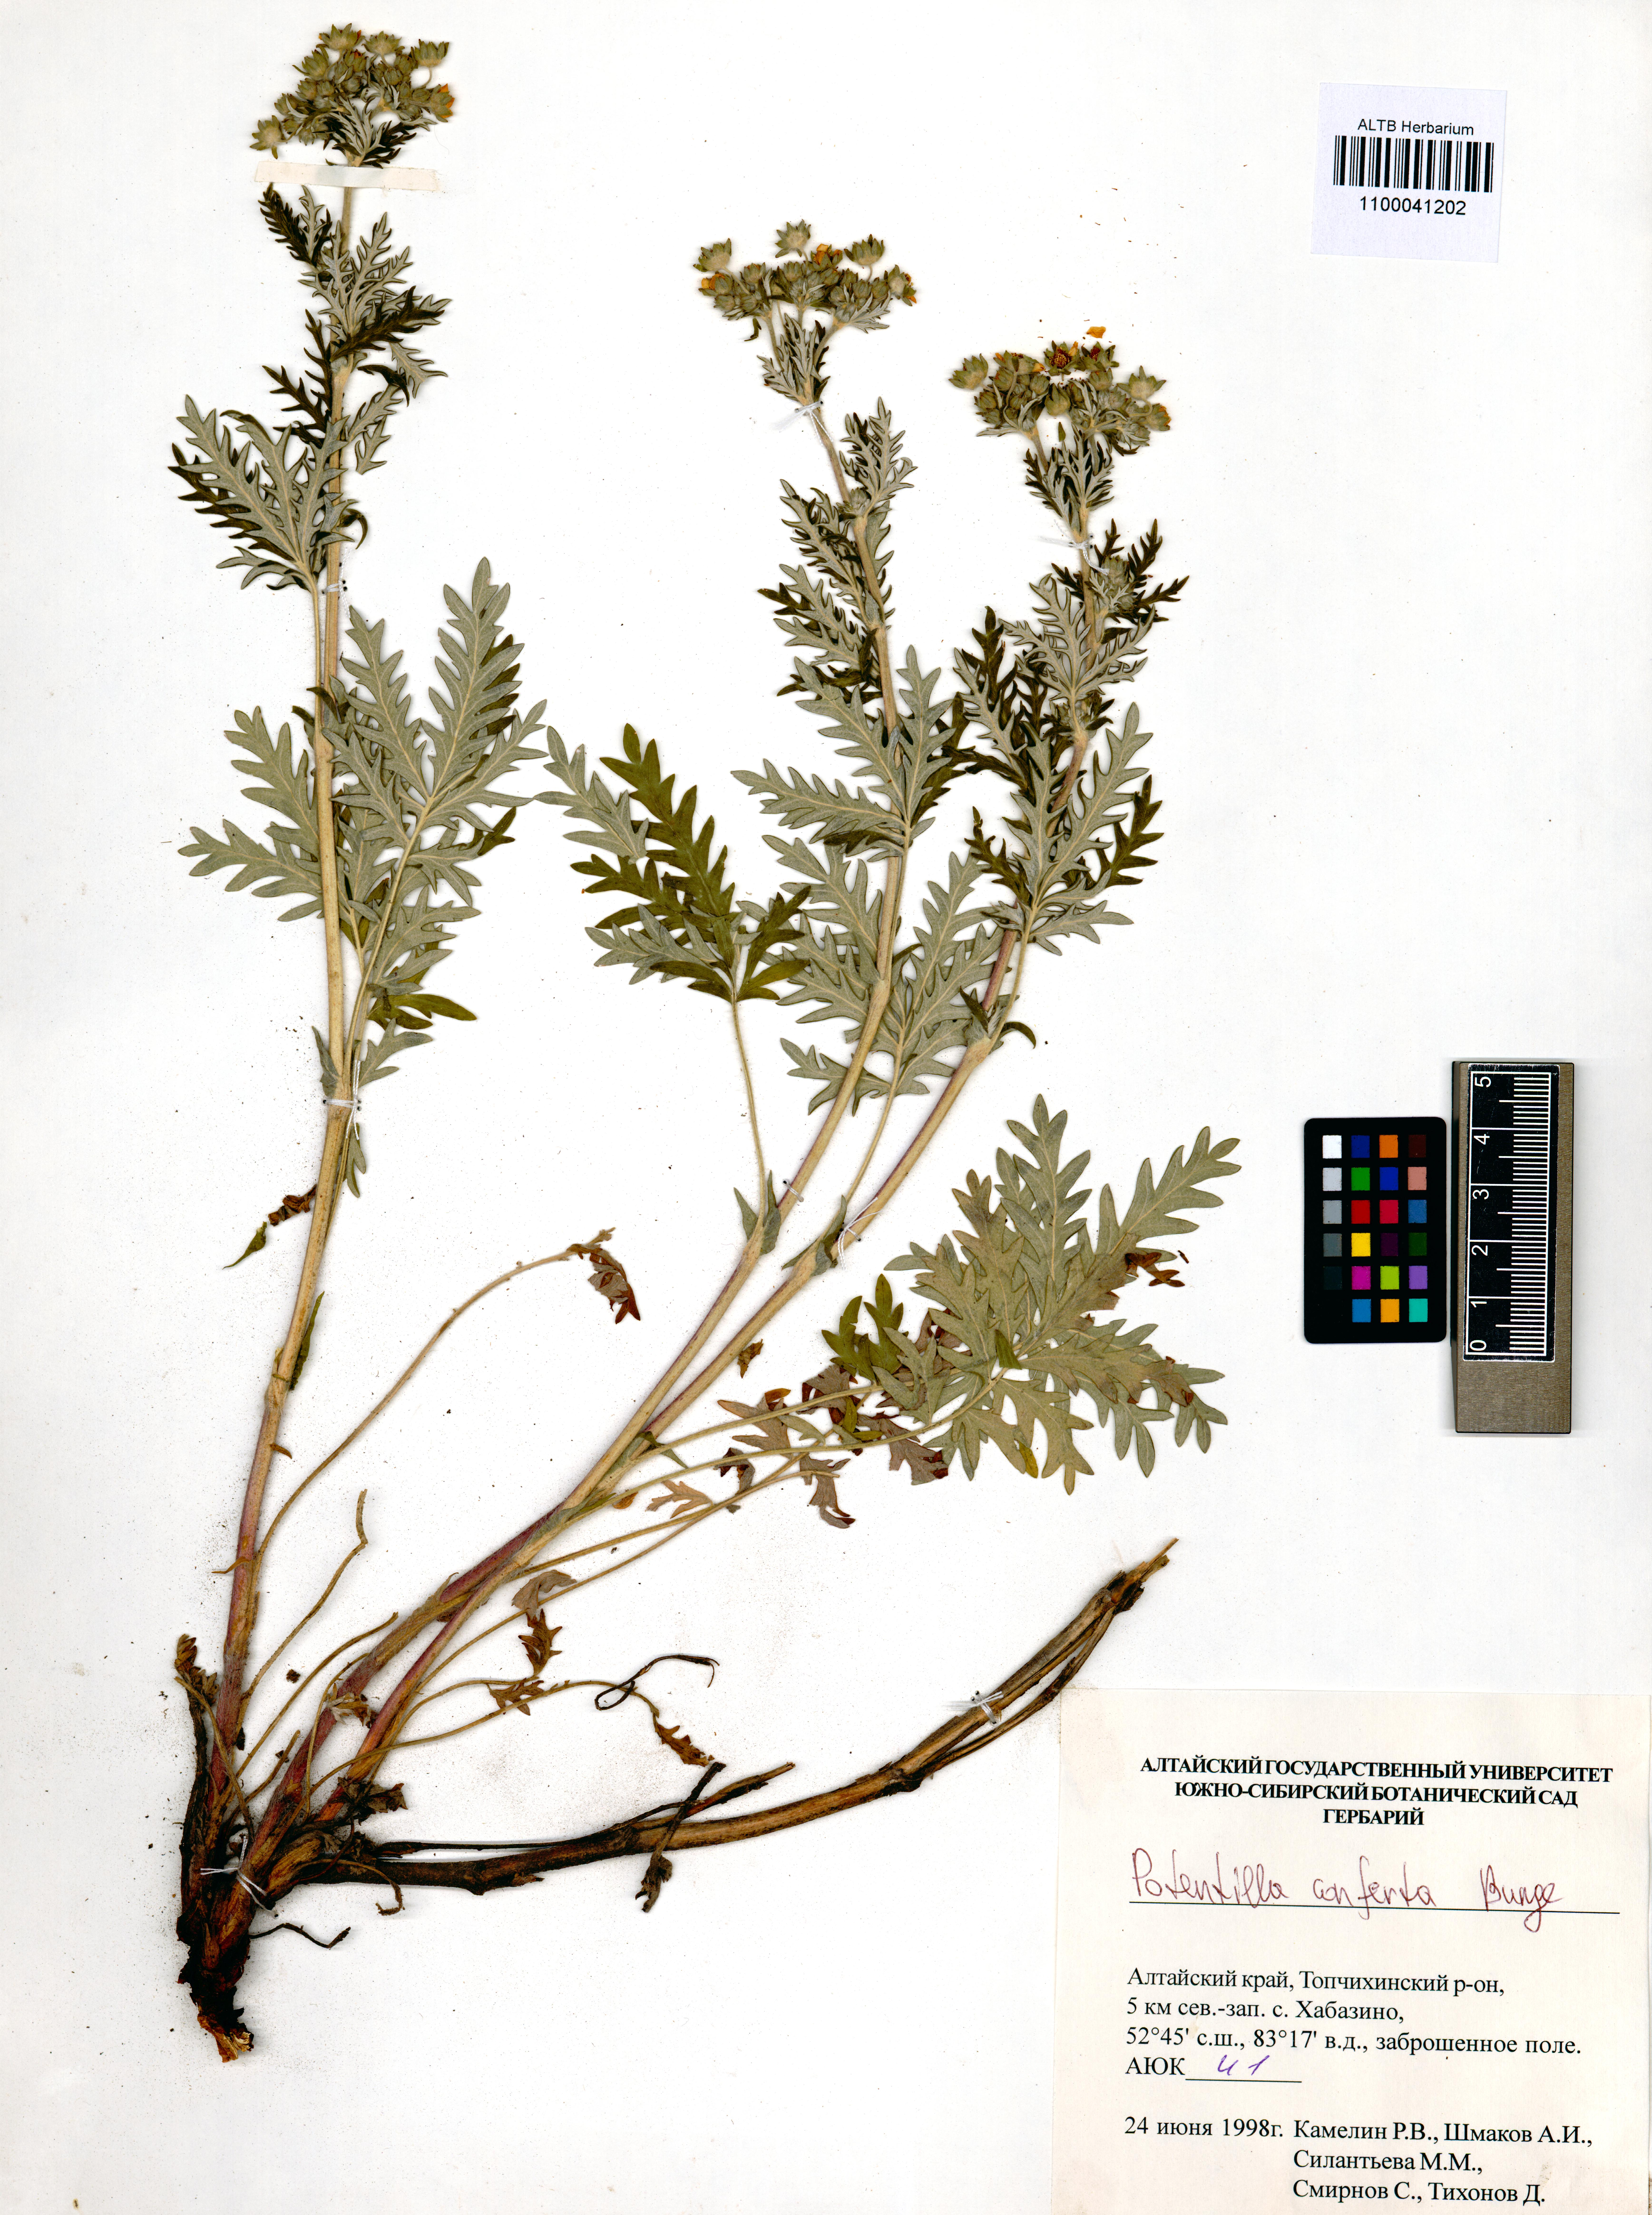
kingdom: Plantae
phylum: Tracheophyta
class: Magnoliopsida
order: Rosales
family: Rosaceae
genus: Potentilla
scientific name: Potentilla conferta
